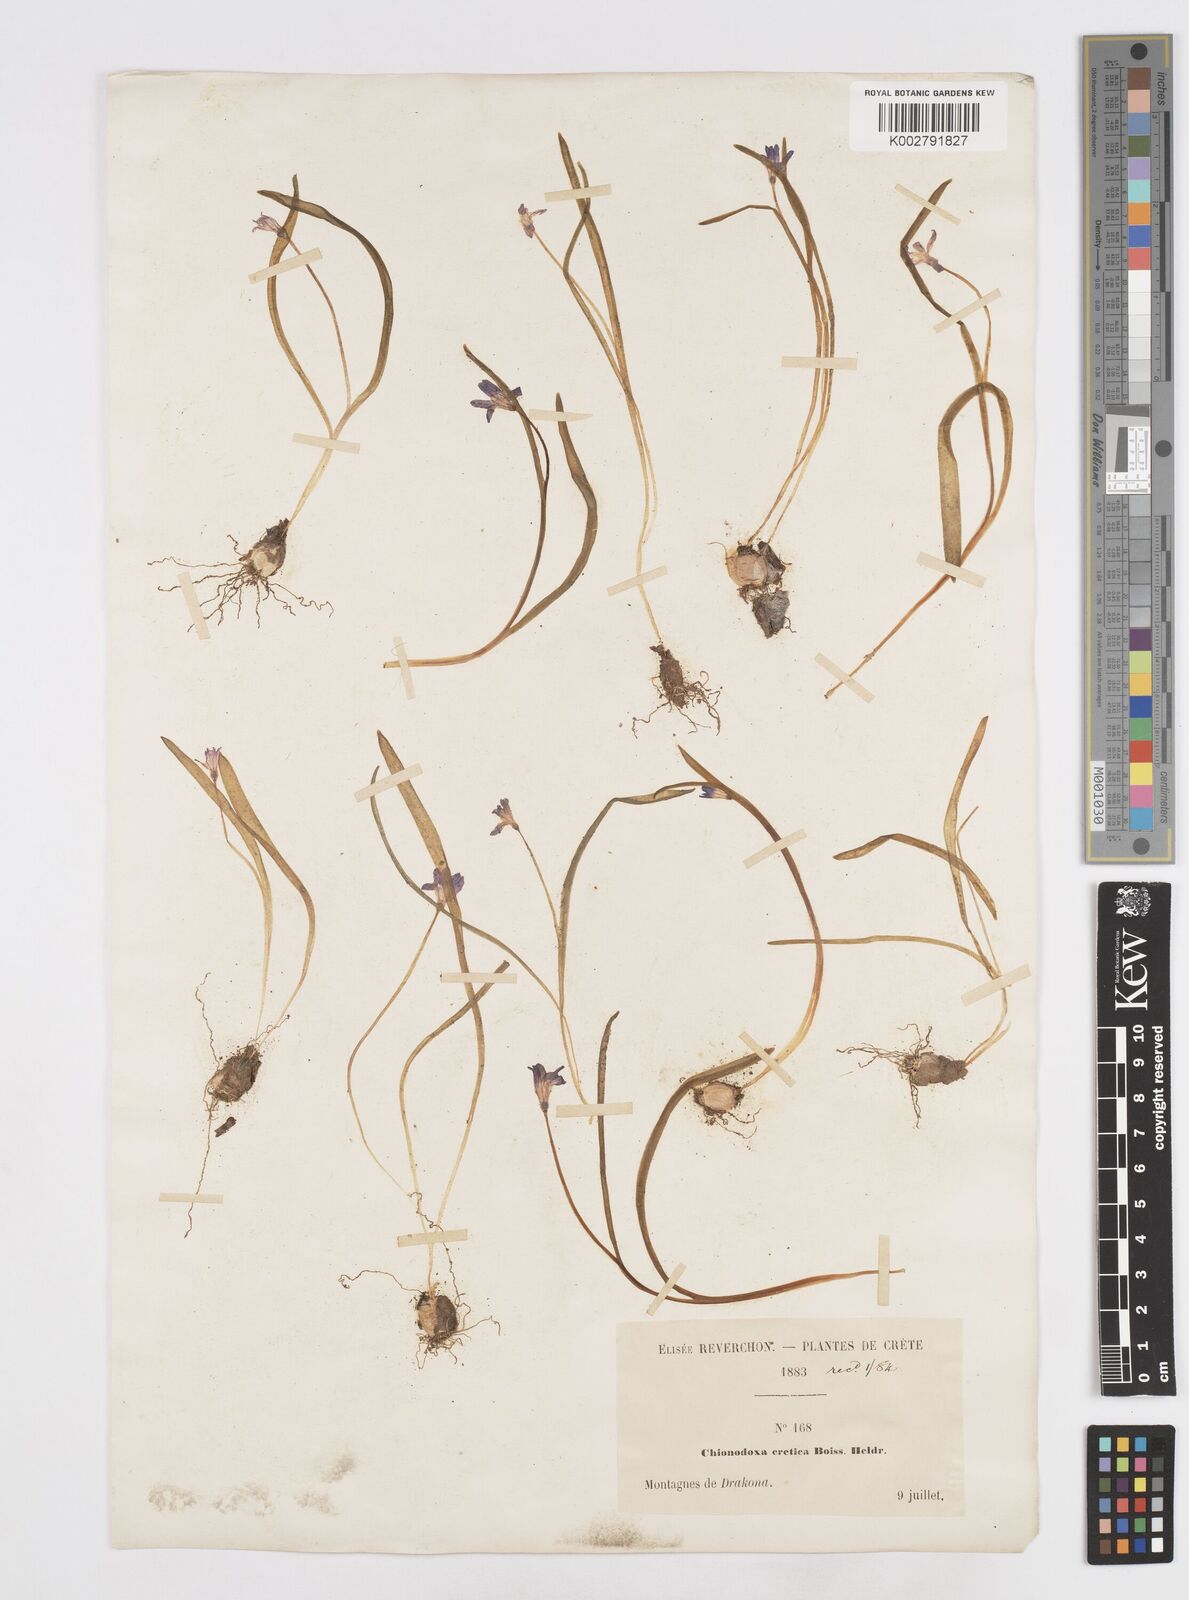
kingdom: Plantae
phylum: Tracheophyta
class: Liliopsida
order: Asparagales
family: Asparagaceae
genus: Scilla
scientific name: Scilla cretica
